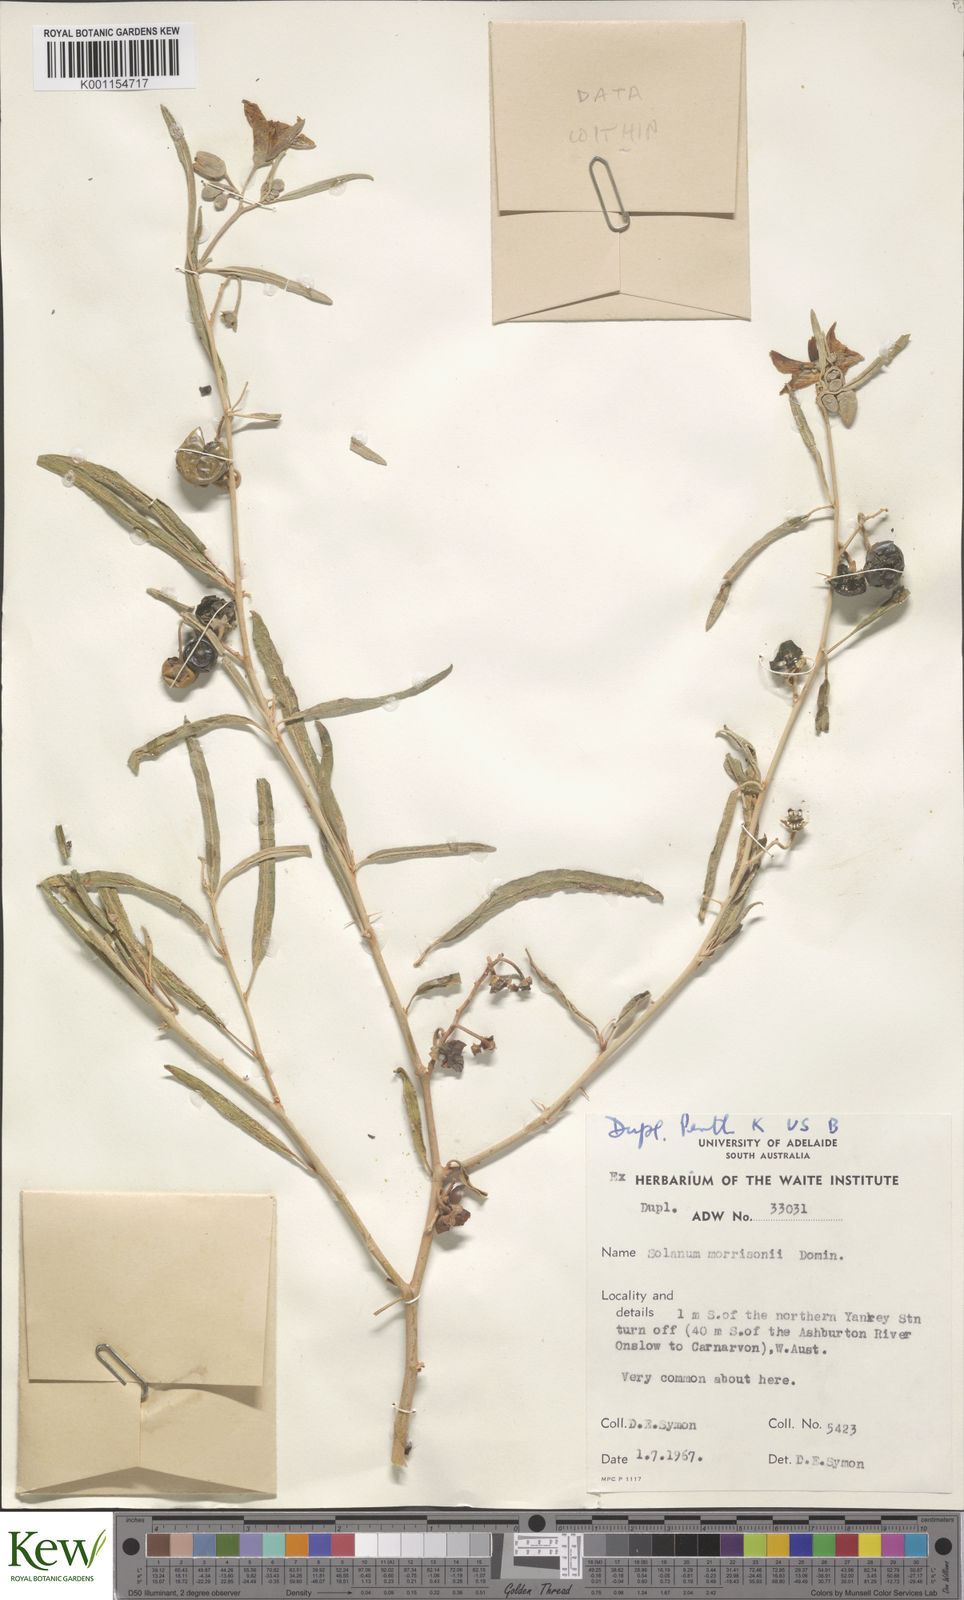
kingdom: Plantae
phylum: Tracheophyta
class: Magnoliopsida
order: Solanales
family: Solanaceae
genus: Solanum
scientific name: Solanum sturtianum
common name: Thargomindah nightshade
